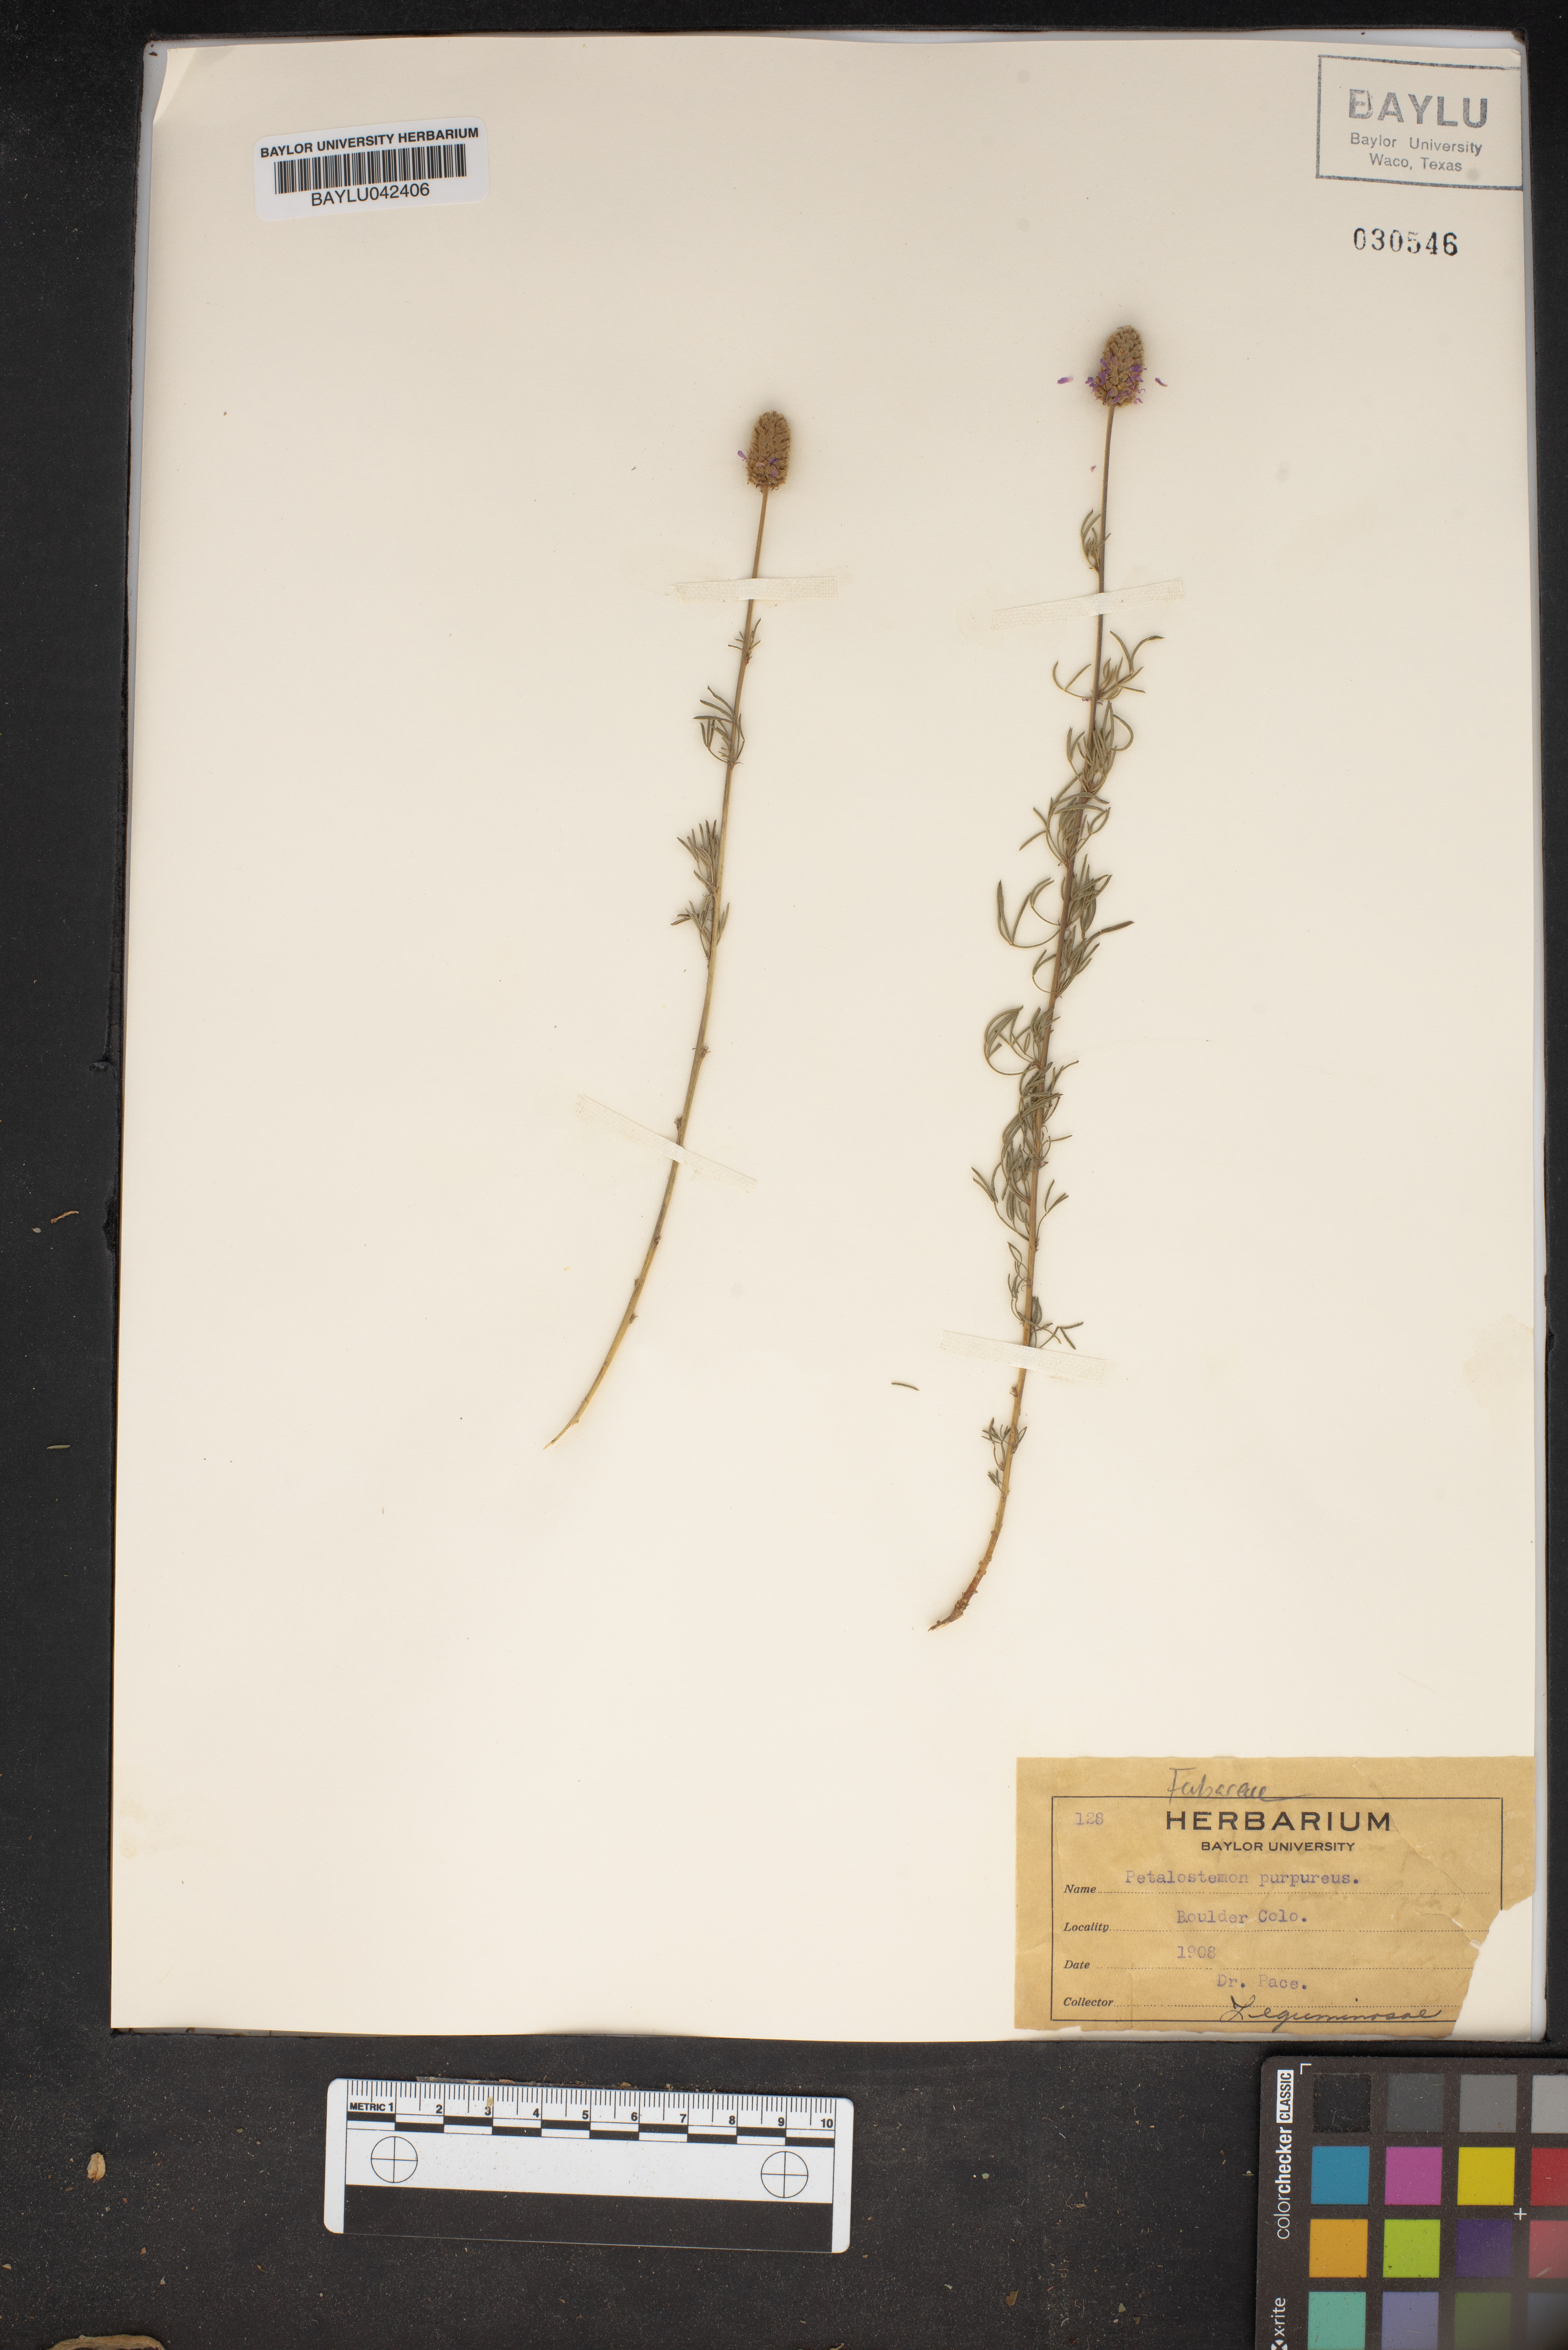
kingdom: Plantae
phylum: Tracheophyta
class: Magnoliopsida
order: Fabales
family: Fabaceae
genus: Dalea
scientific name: Dalea purpurea
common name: Purple prairie-clover
